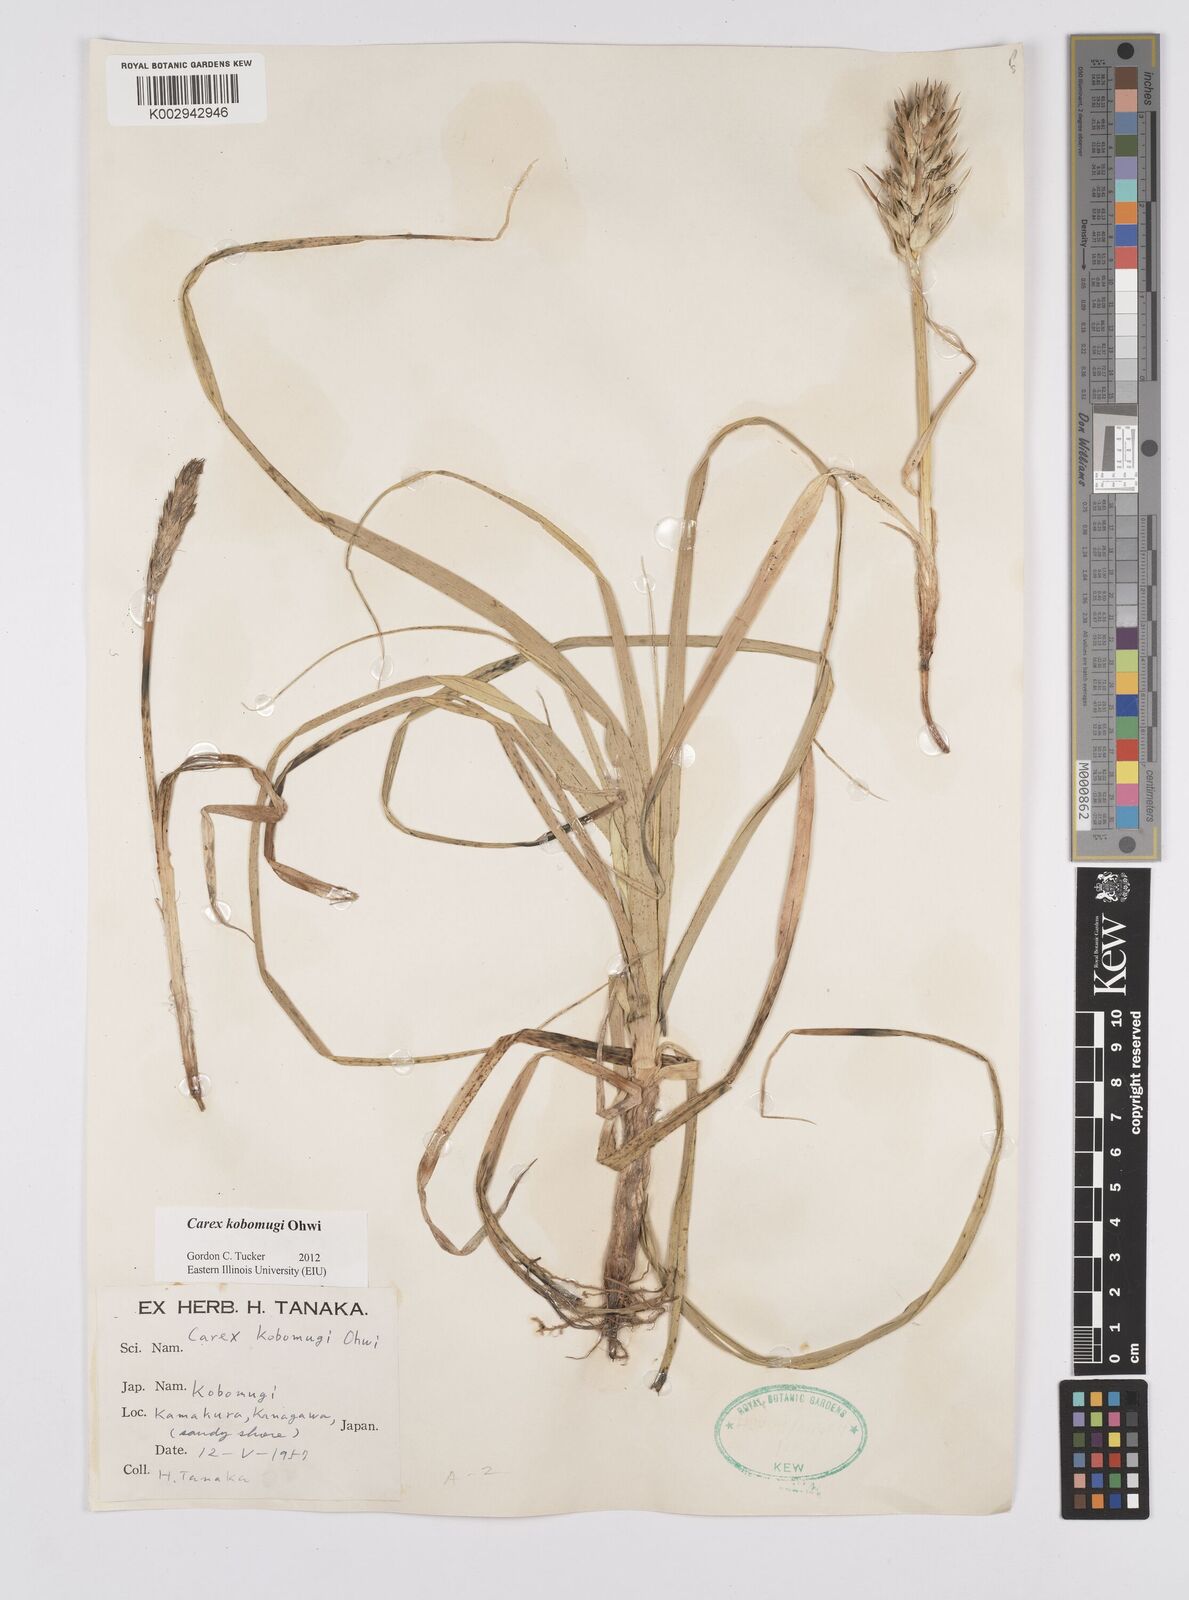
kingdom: Plantae
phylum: Tracheophyta
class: Liliopsida
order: Poales
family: Cyperaceae
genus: Carex
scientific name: Carex kobomugi
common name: Japanese sedge
